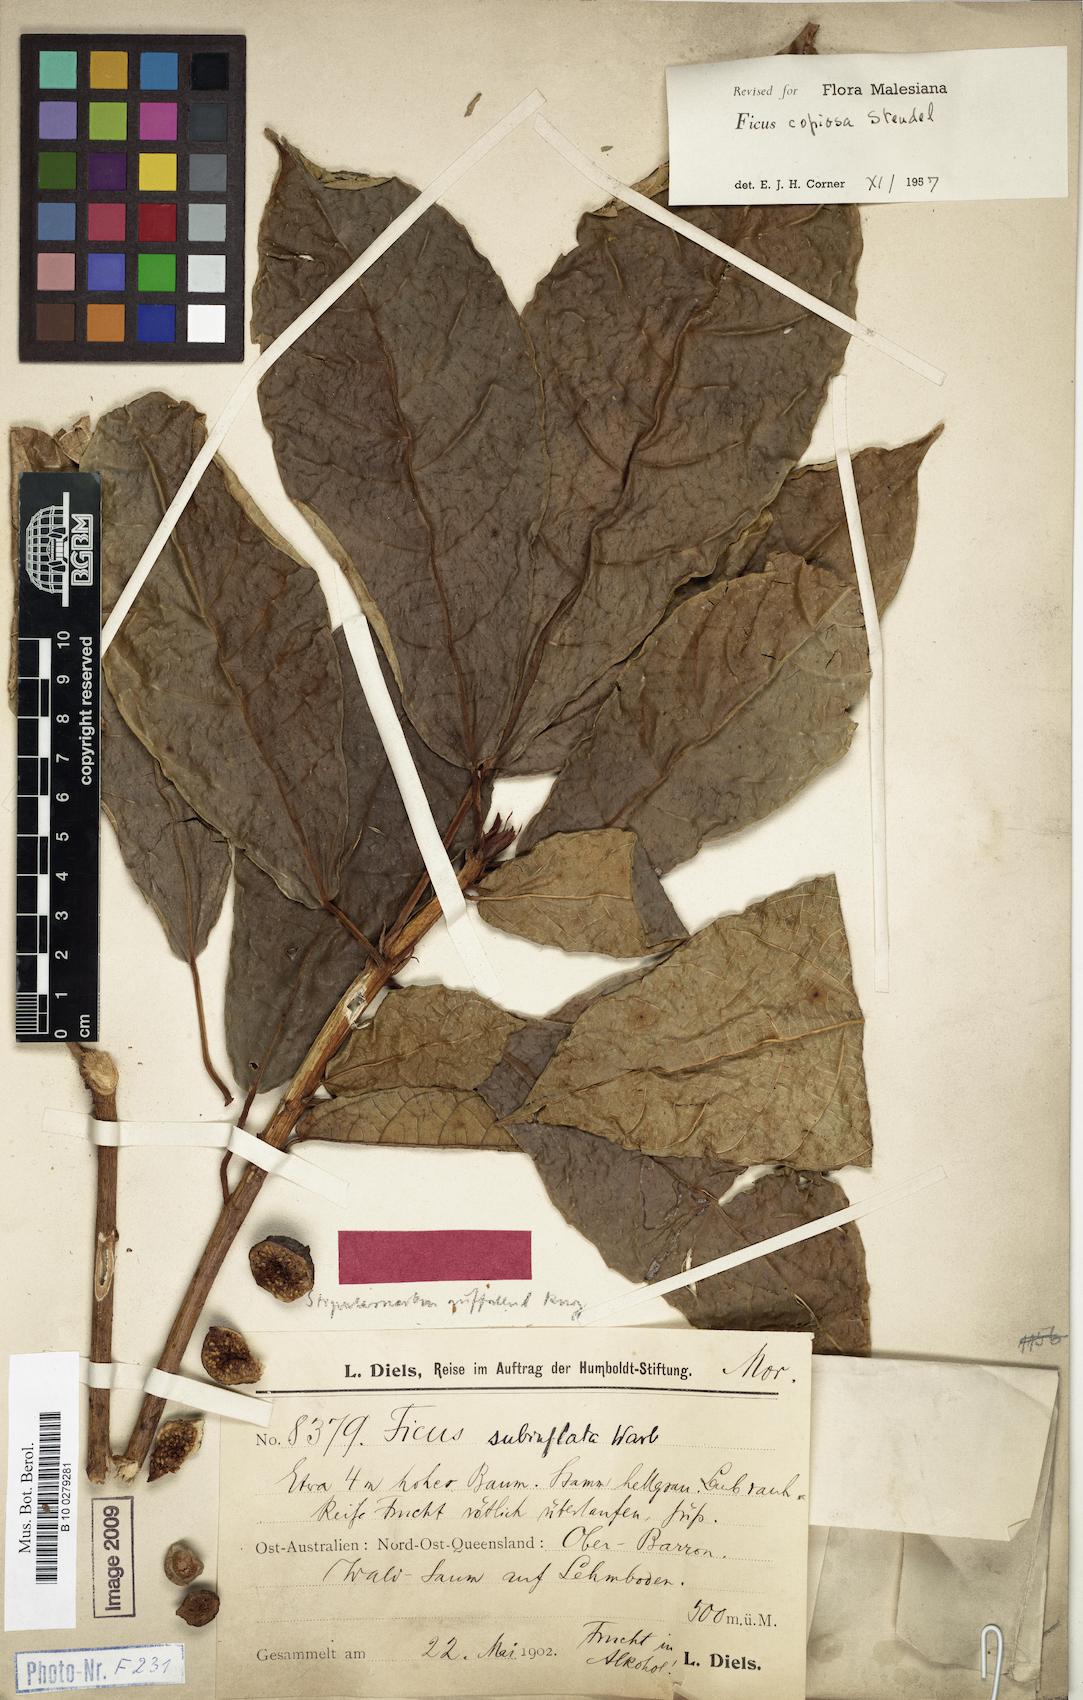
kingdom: Plantae
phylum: Tracheophyta
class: Magnoliopsida
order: Rosales
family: Moraceae
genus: Ficus
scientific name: Ficus copiosa
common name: Plentiful fig
